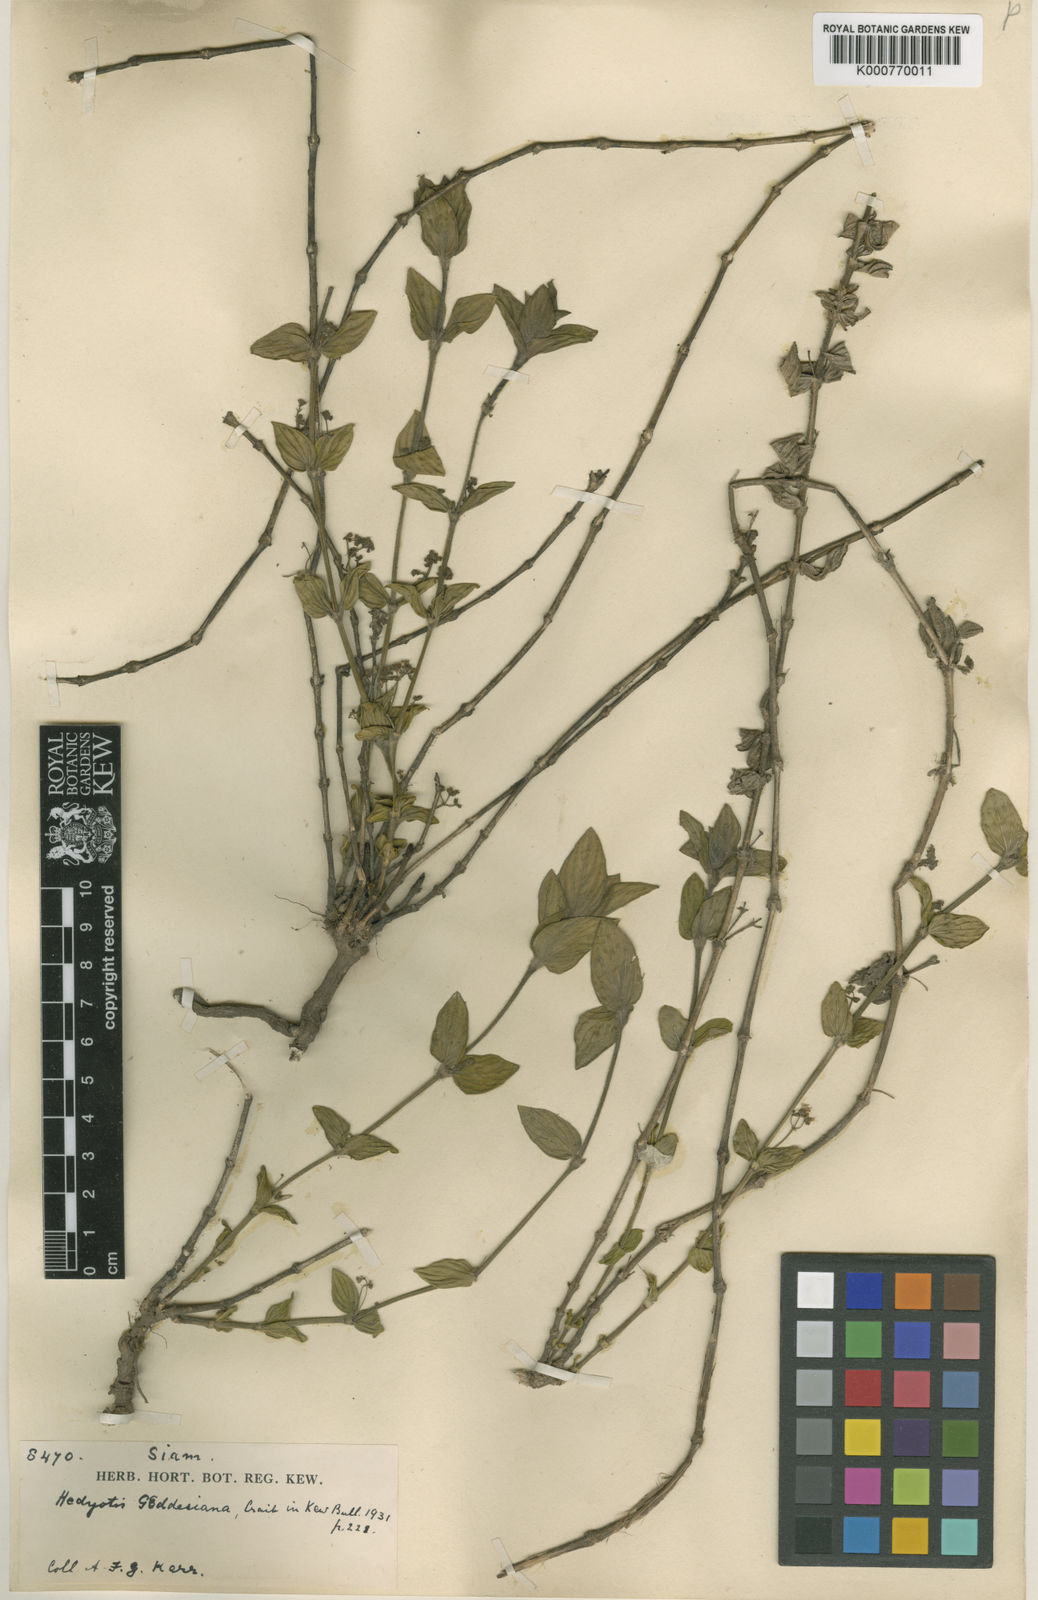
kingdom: Plantae
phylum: Tracheophyta
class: Magnoliopsida
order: Gentianales
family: Rubiaceae
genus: Exallage
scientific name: Exallage
